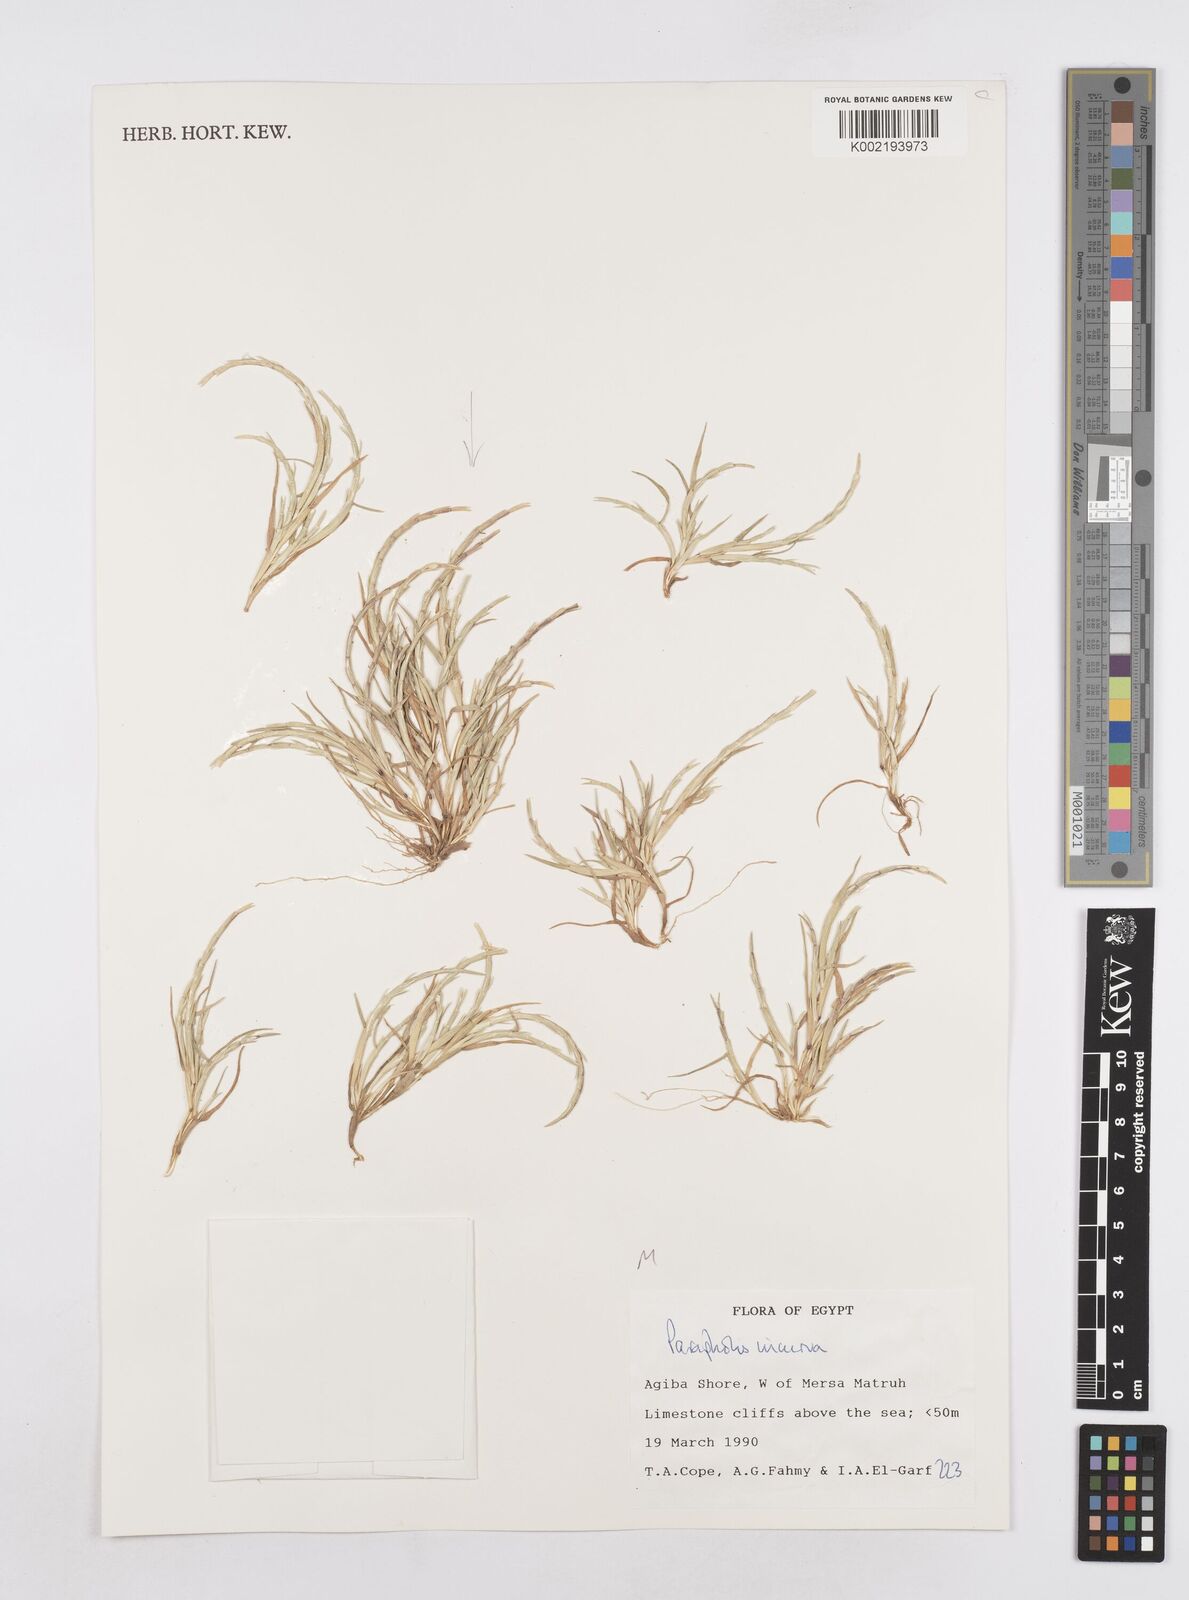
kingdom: Plantae
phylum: Tracheophyta
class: Liliopsida
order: Poales
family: Poaceae
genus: Parapholis
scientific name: Parapholis incurva
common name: Curved sicklegrass
